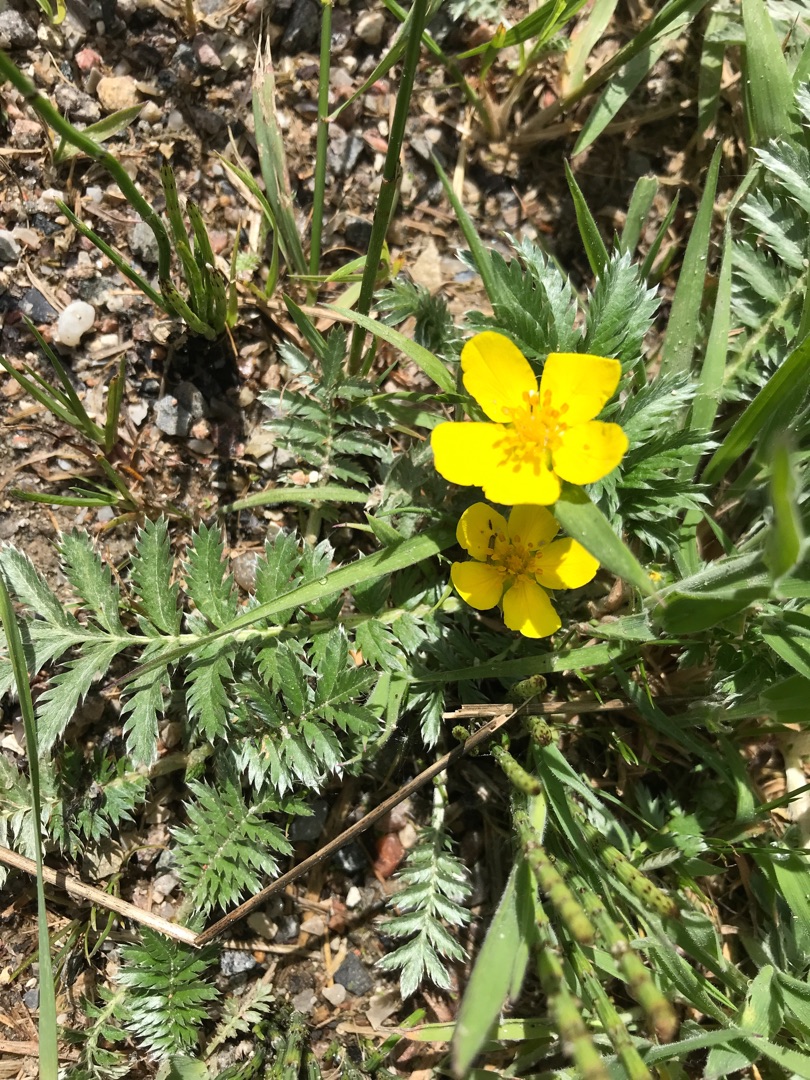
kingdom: Plantae
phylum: Tracheophyta
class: Magnoliopsida
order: Rosales
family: Rosaceae
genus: Argentina
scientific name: Argentina anserina
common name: Gåsepotentil
